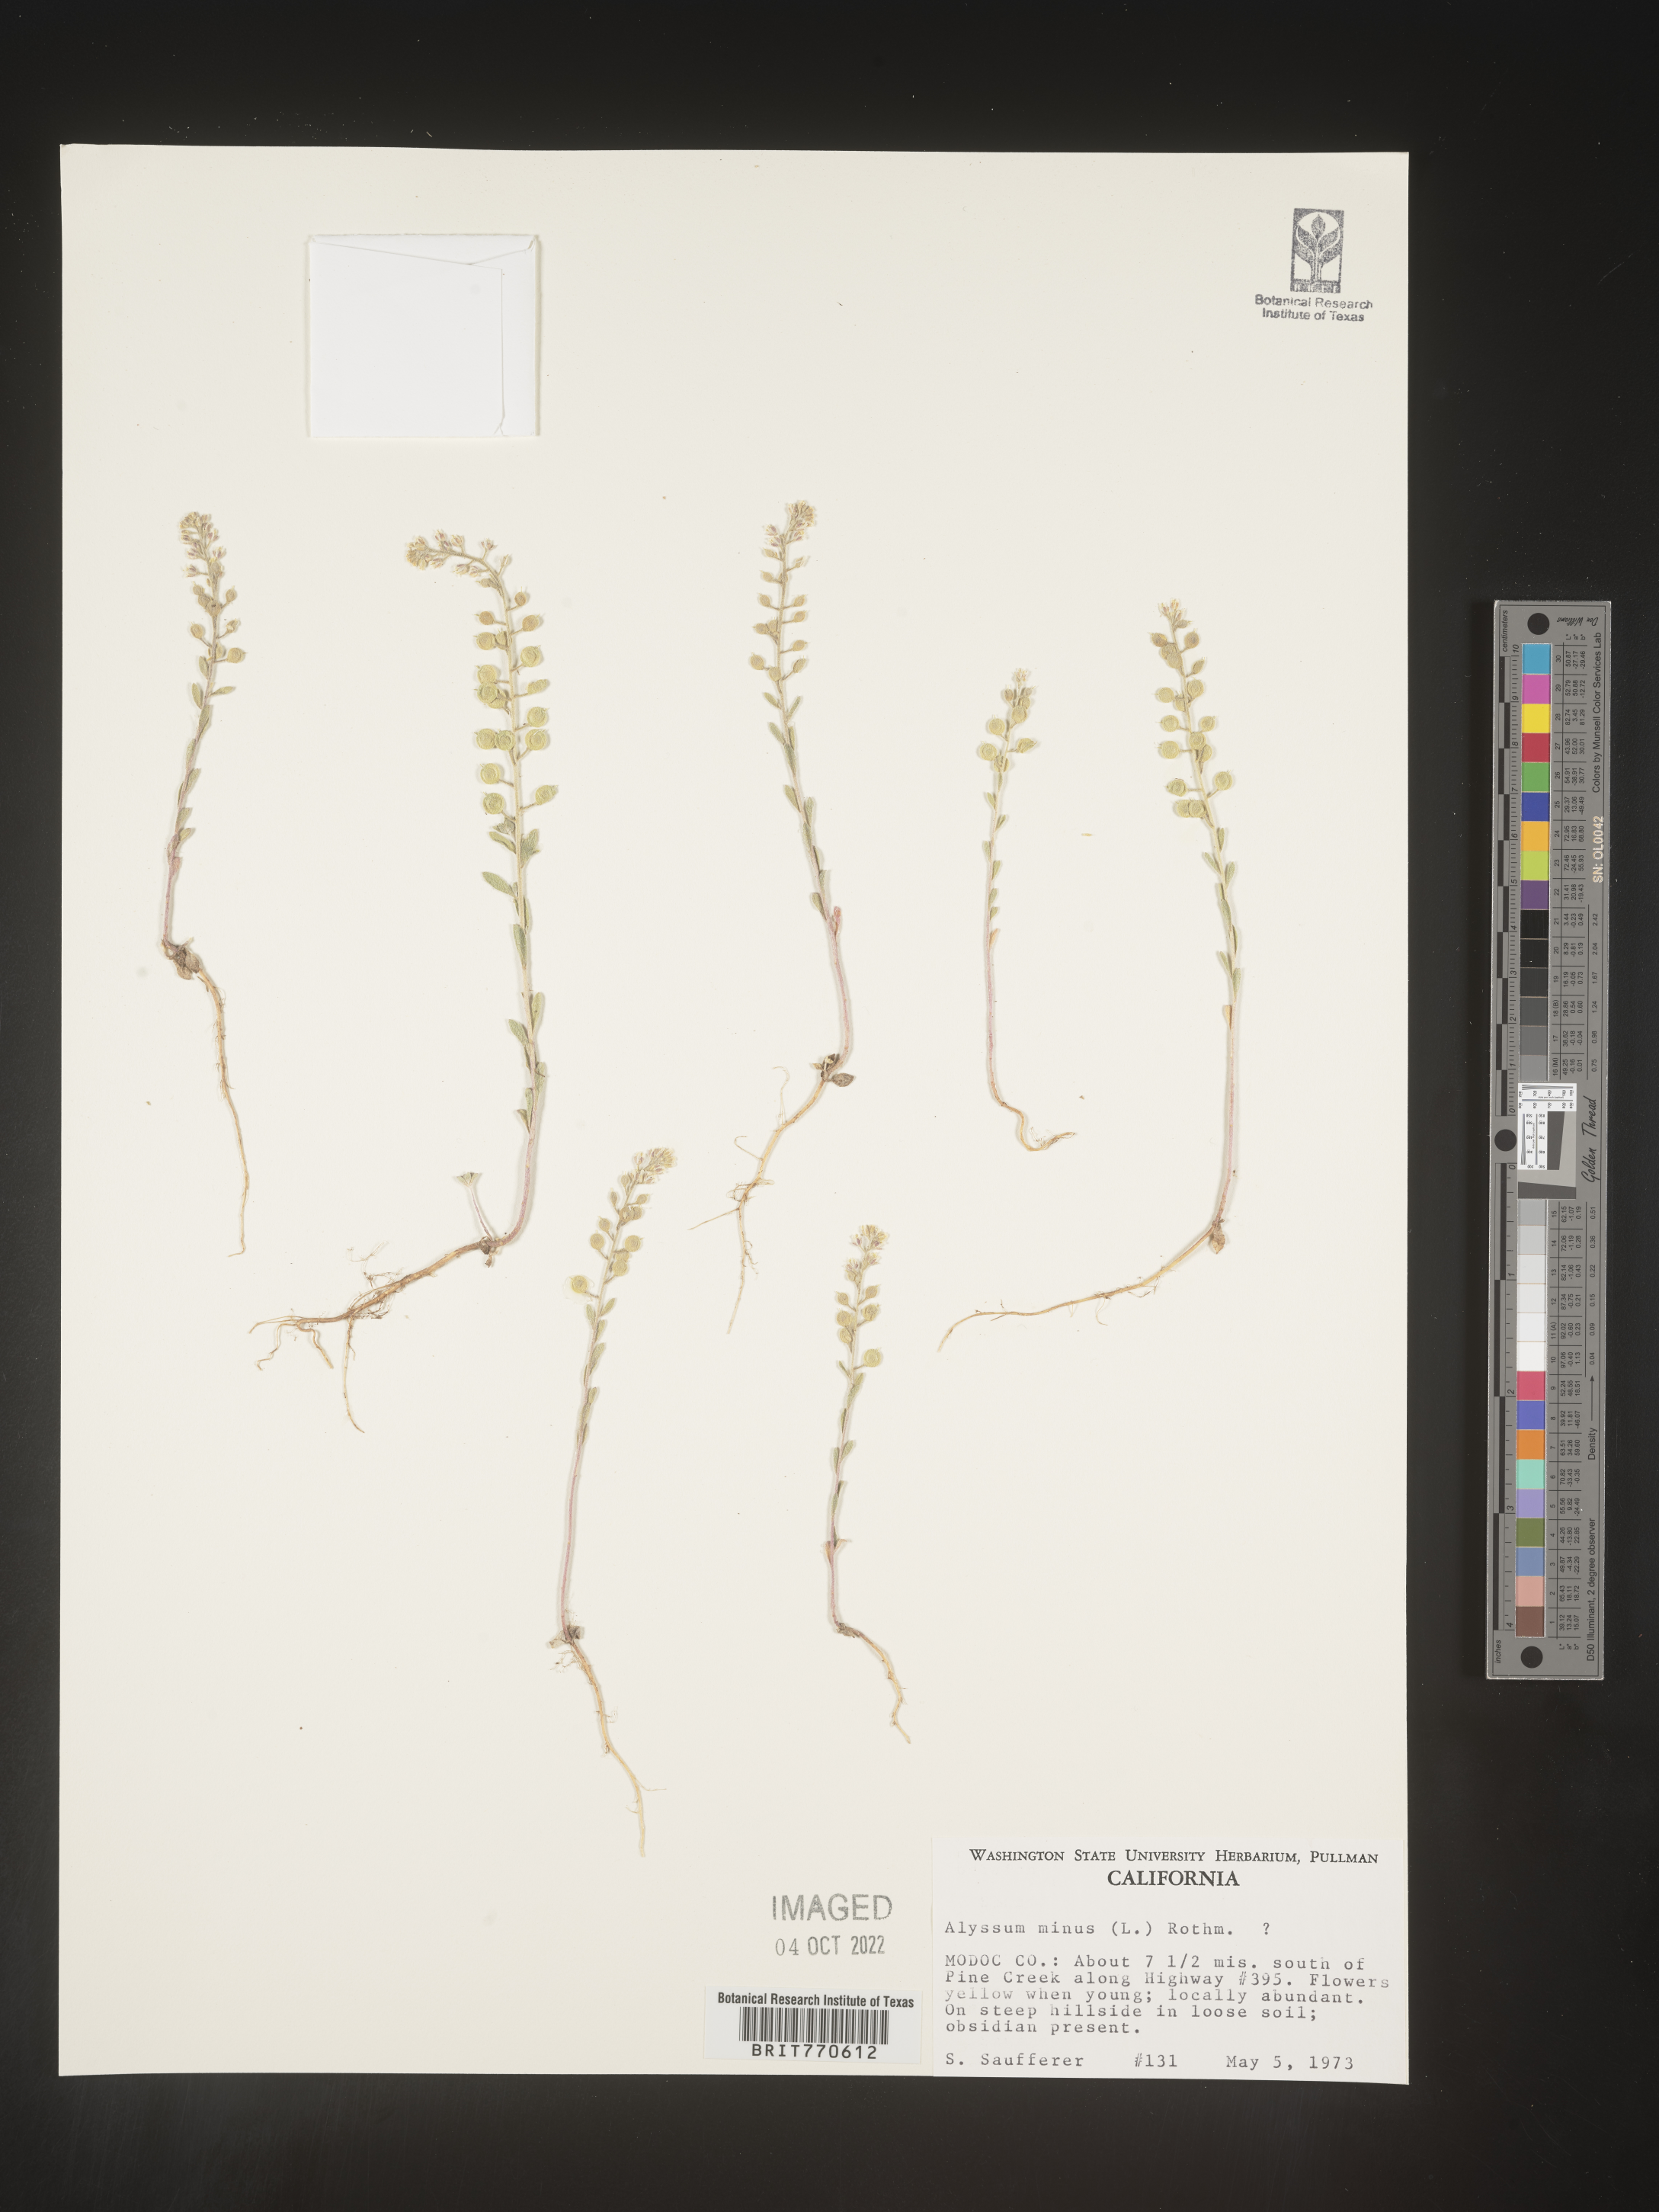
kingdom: Plantae
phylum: Tracheophyta
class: Magnoliopsida
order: Brassicales
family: Brassicaceae
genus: Alyssum
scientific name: Alyssum
